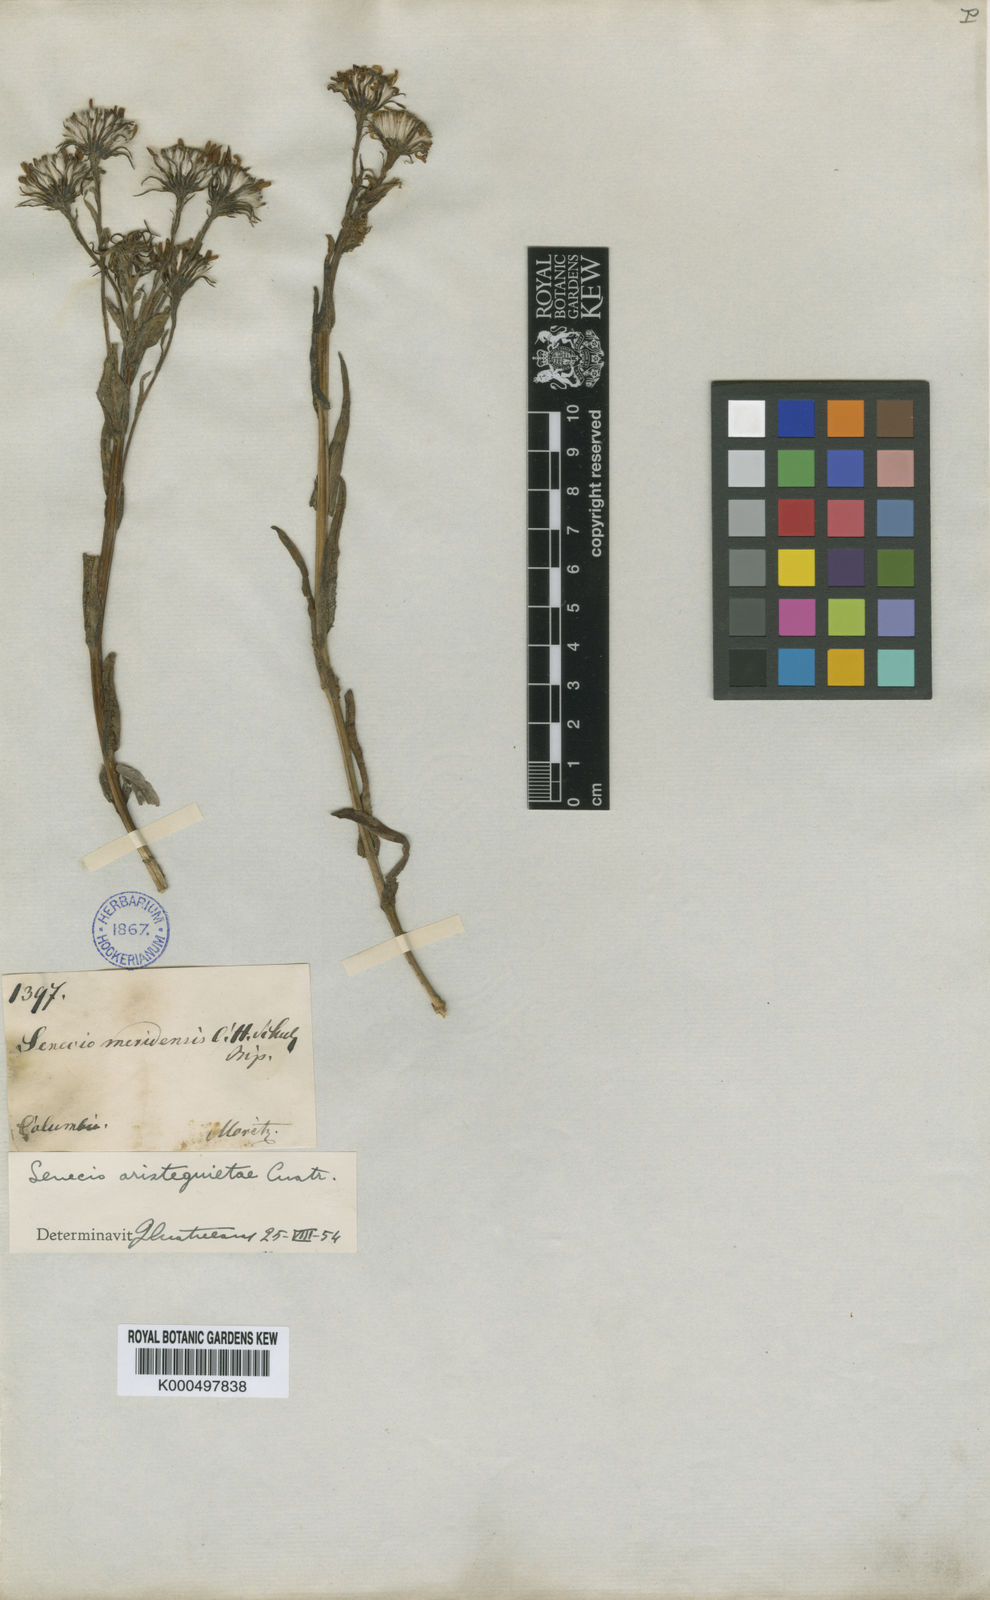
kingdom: Plantae
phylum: Tracheophyta
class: Magnoliopsida
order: Asterales
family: Asteraceae
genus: Senecio
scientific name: Senecio aristeguietae
